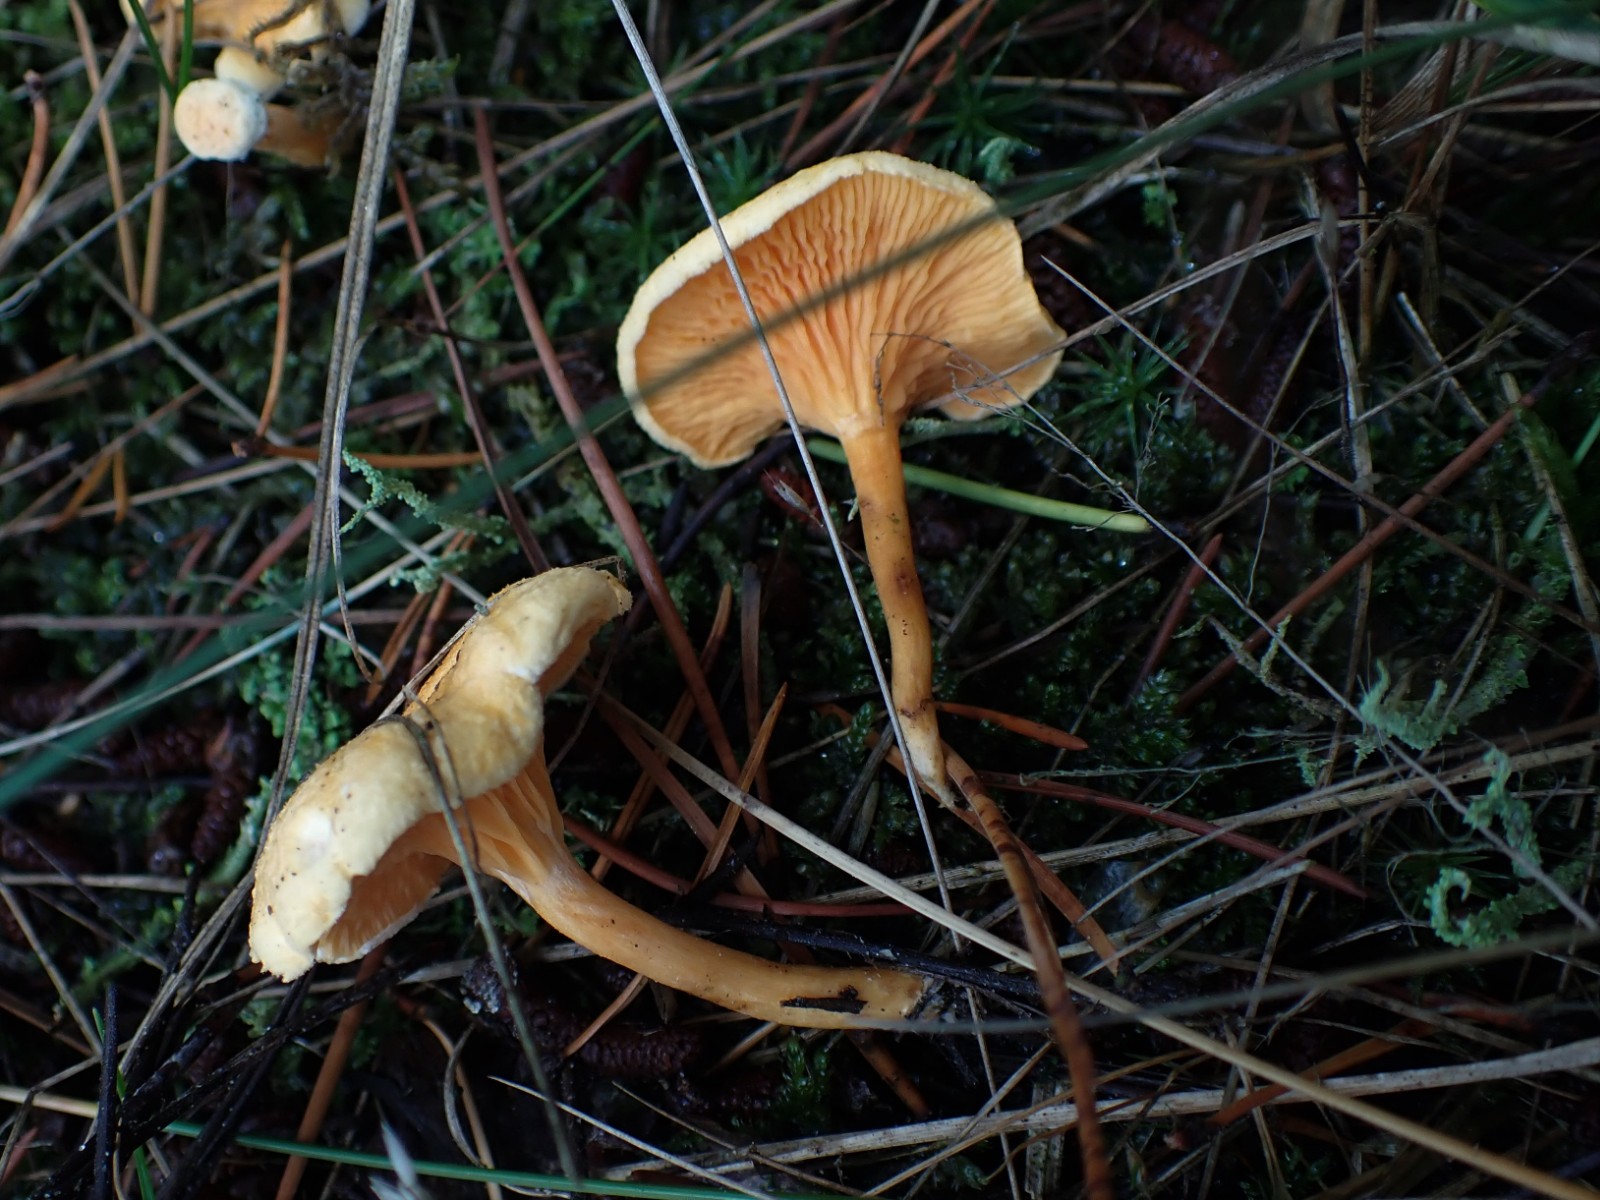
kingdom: Fungi
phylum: Basidiomycota
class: Agaricomycetes
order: Boletales
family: Hygrophoropsidaceae
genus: Hygrophoropsis
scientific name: Hygrophoropsis aurantiaca
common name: almindelig orangekantarel
